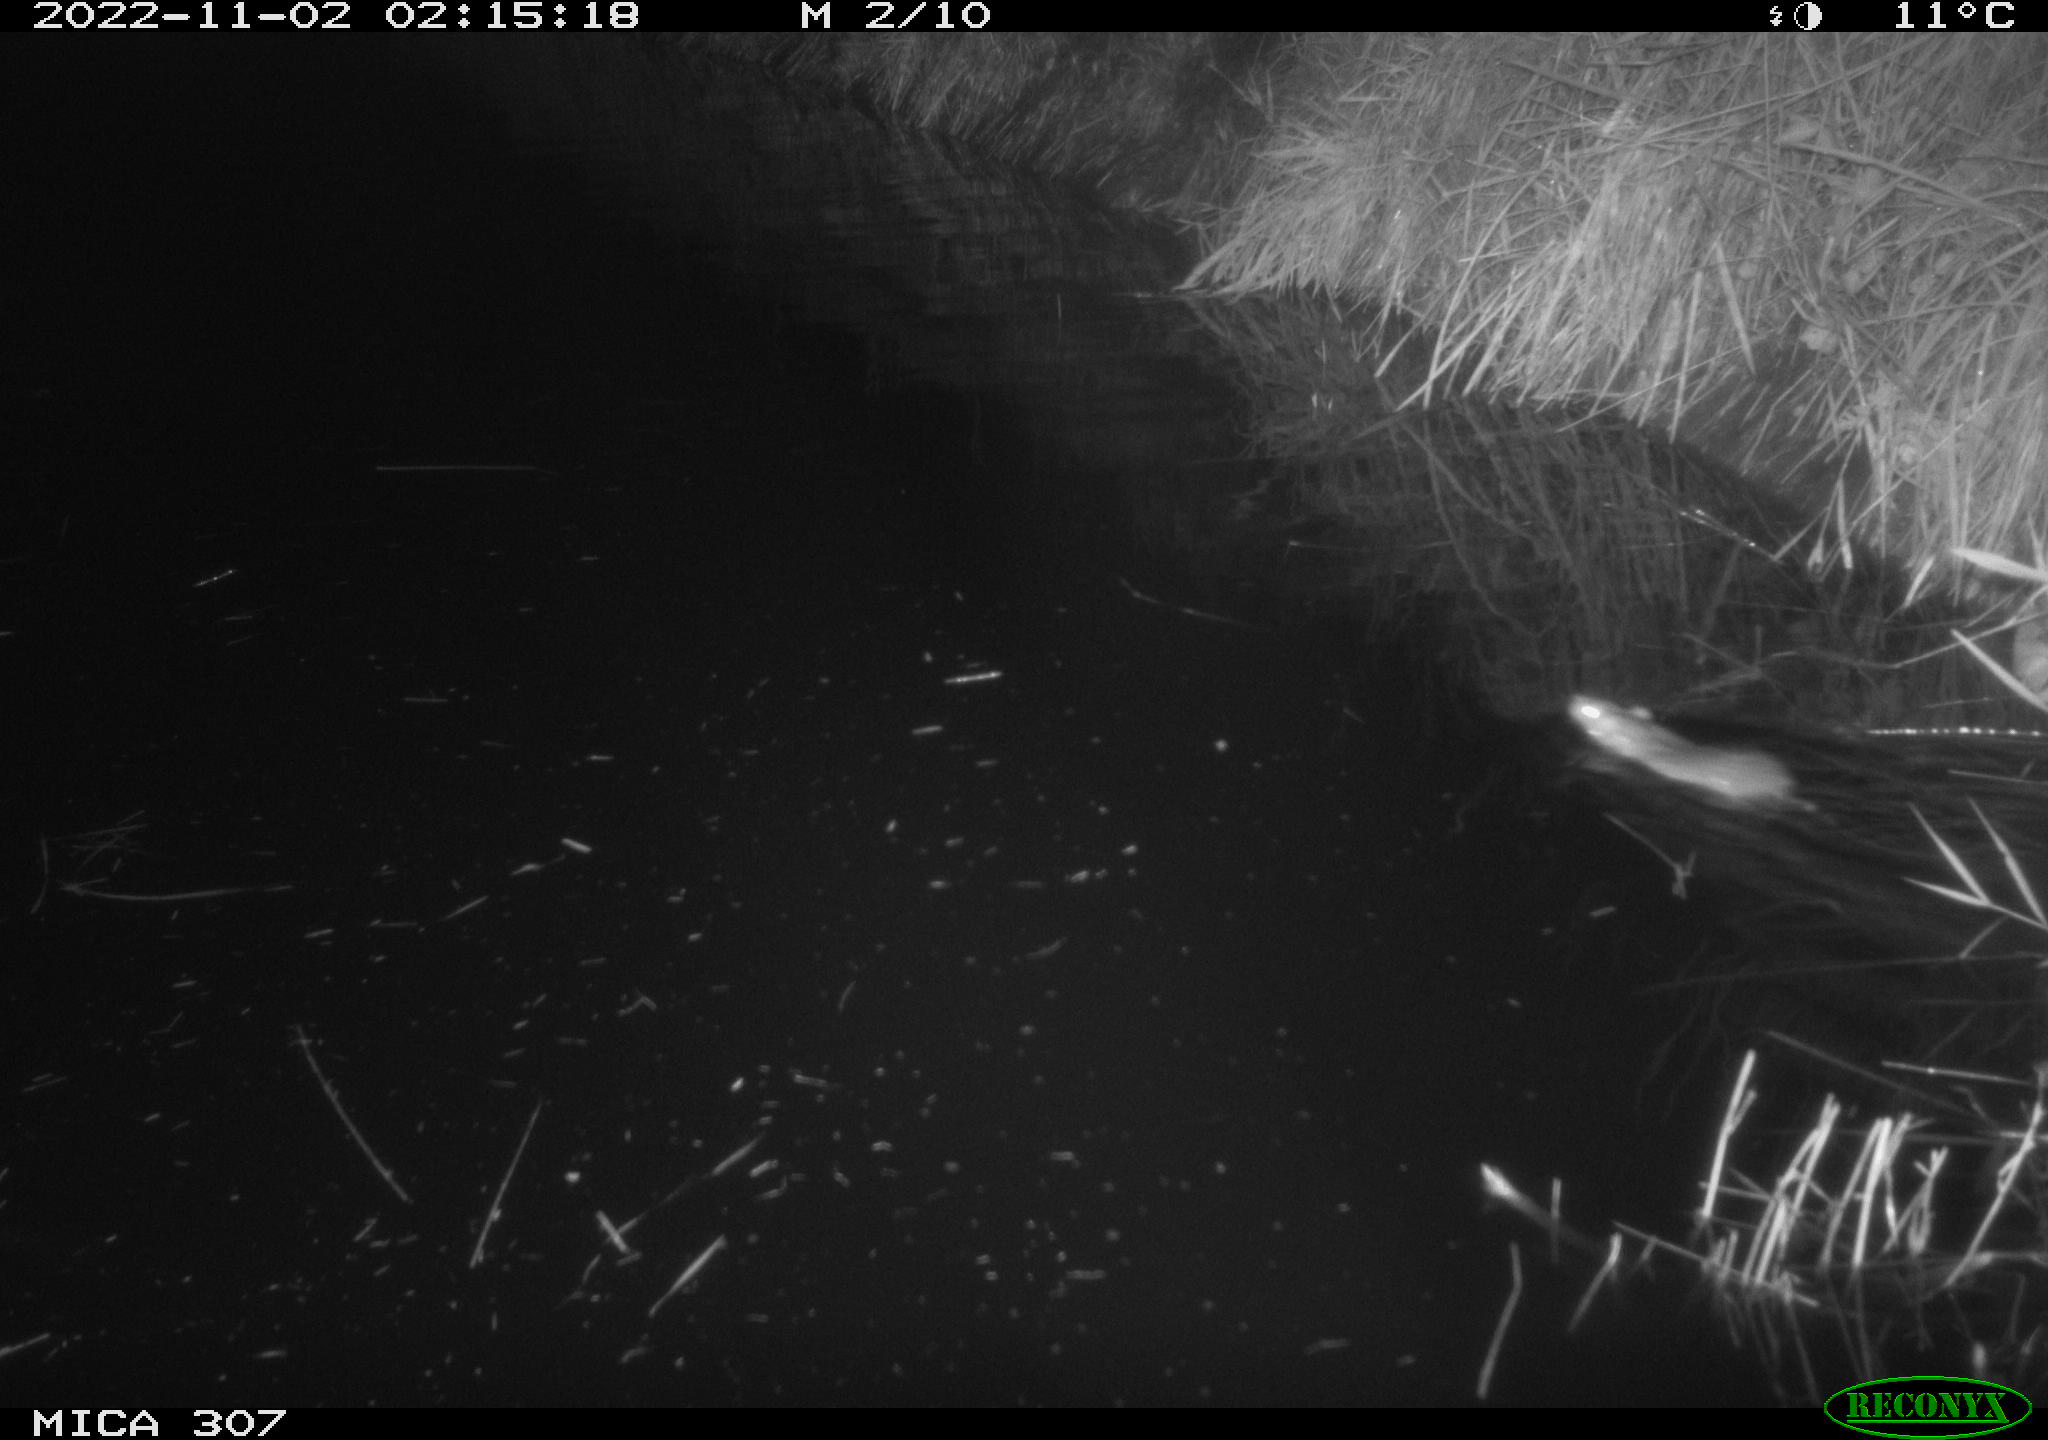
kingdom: Animalia
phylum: Chordata
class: Mammalia
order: Rodentia
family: Muridae
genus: Rattus
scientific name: Rattus norvegicus
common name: Brown rat
